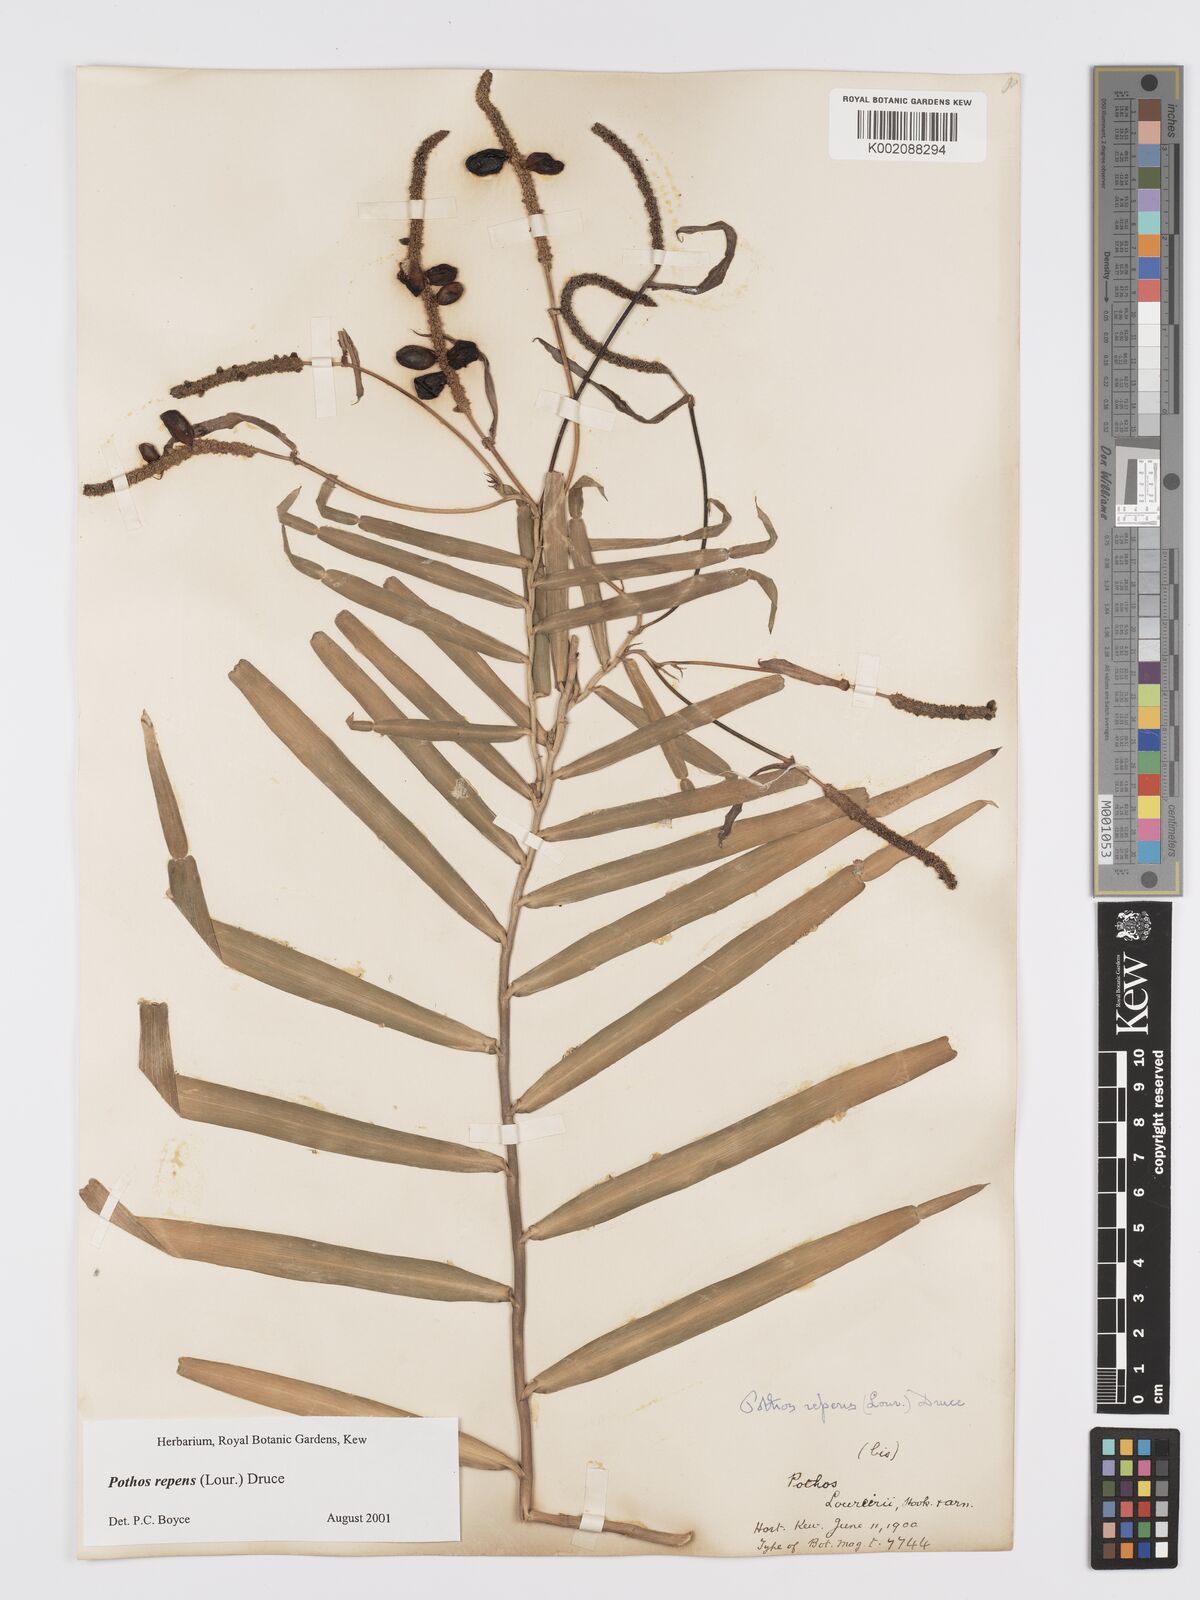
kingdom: Plantae
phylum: Tracheophyta
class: Liliopsida
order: Alismatales
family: Araceae
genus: Pothos
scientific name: Pothos repens
